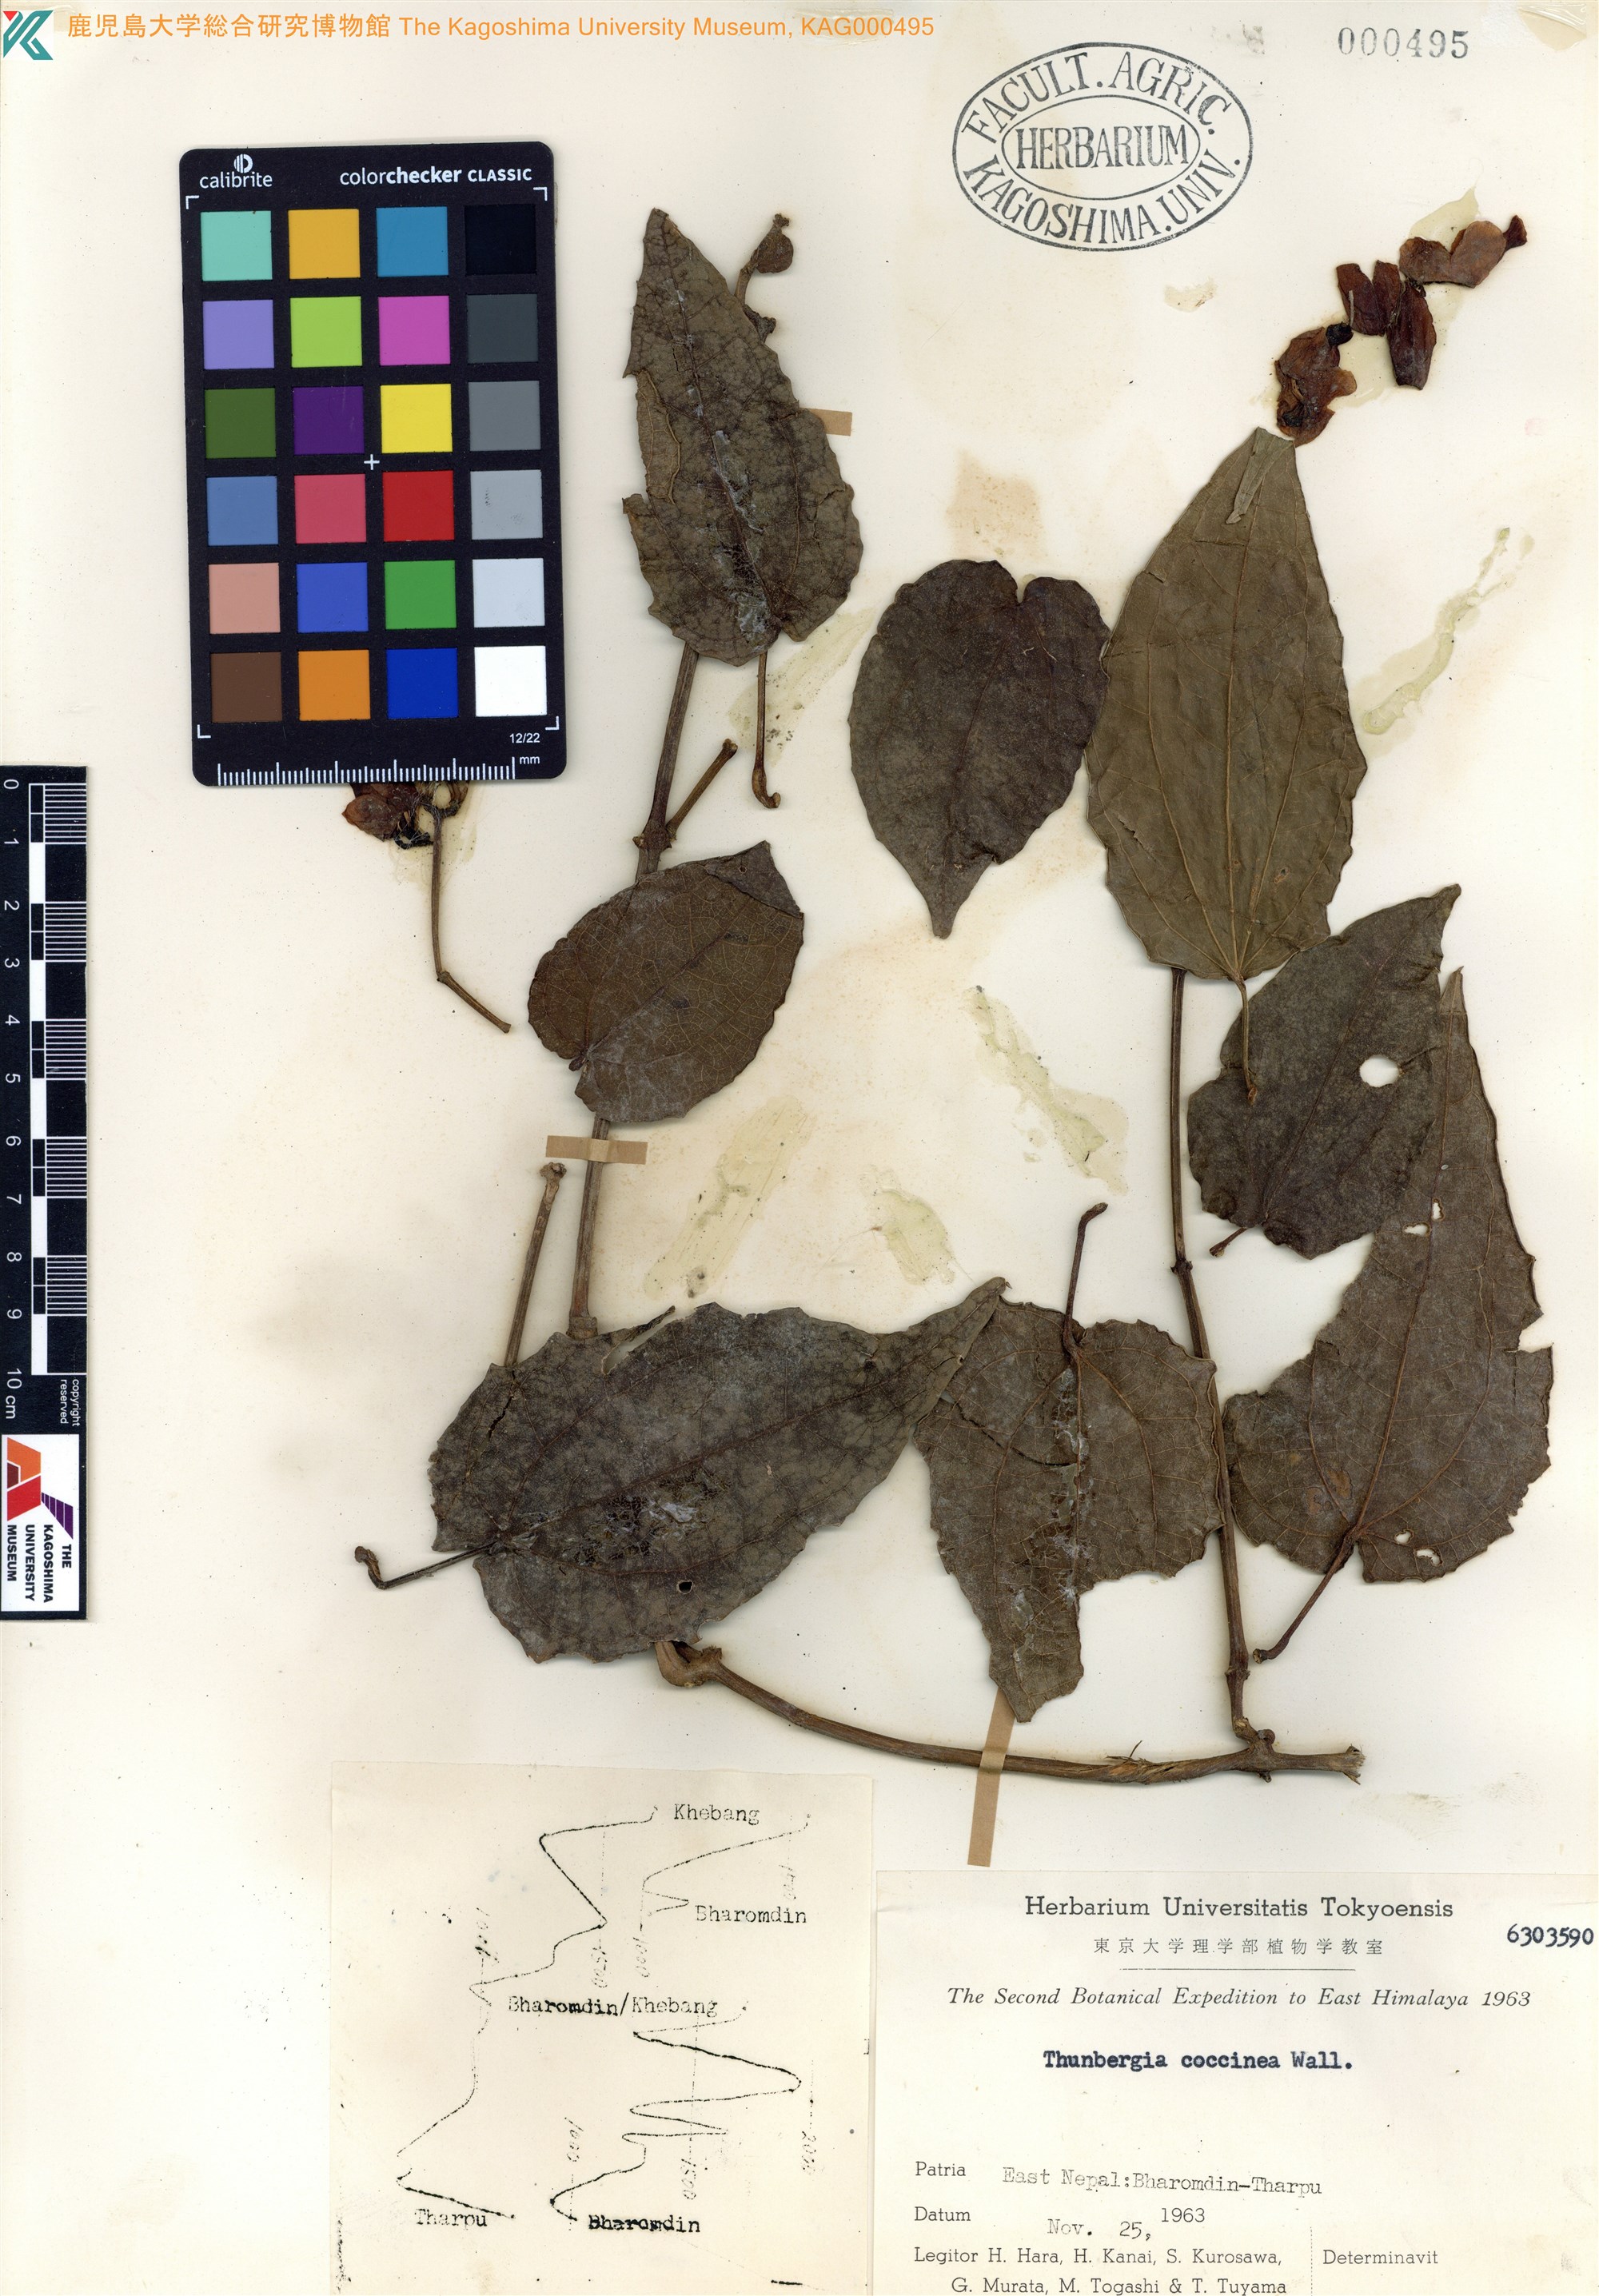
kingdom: Plantae
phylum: Tracheophyta
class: Magnoliopsida
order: Lamiales
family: Acanthaceae
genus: Thunbergia
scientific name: Thunbergia coccinea
